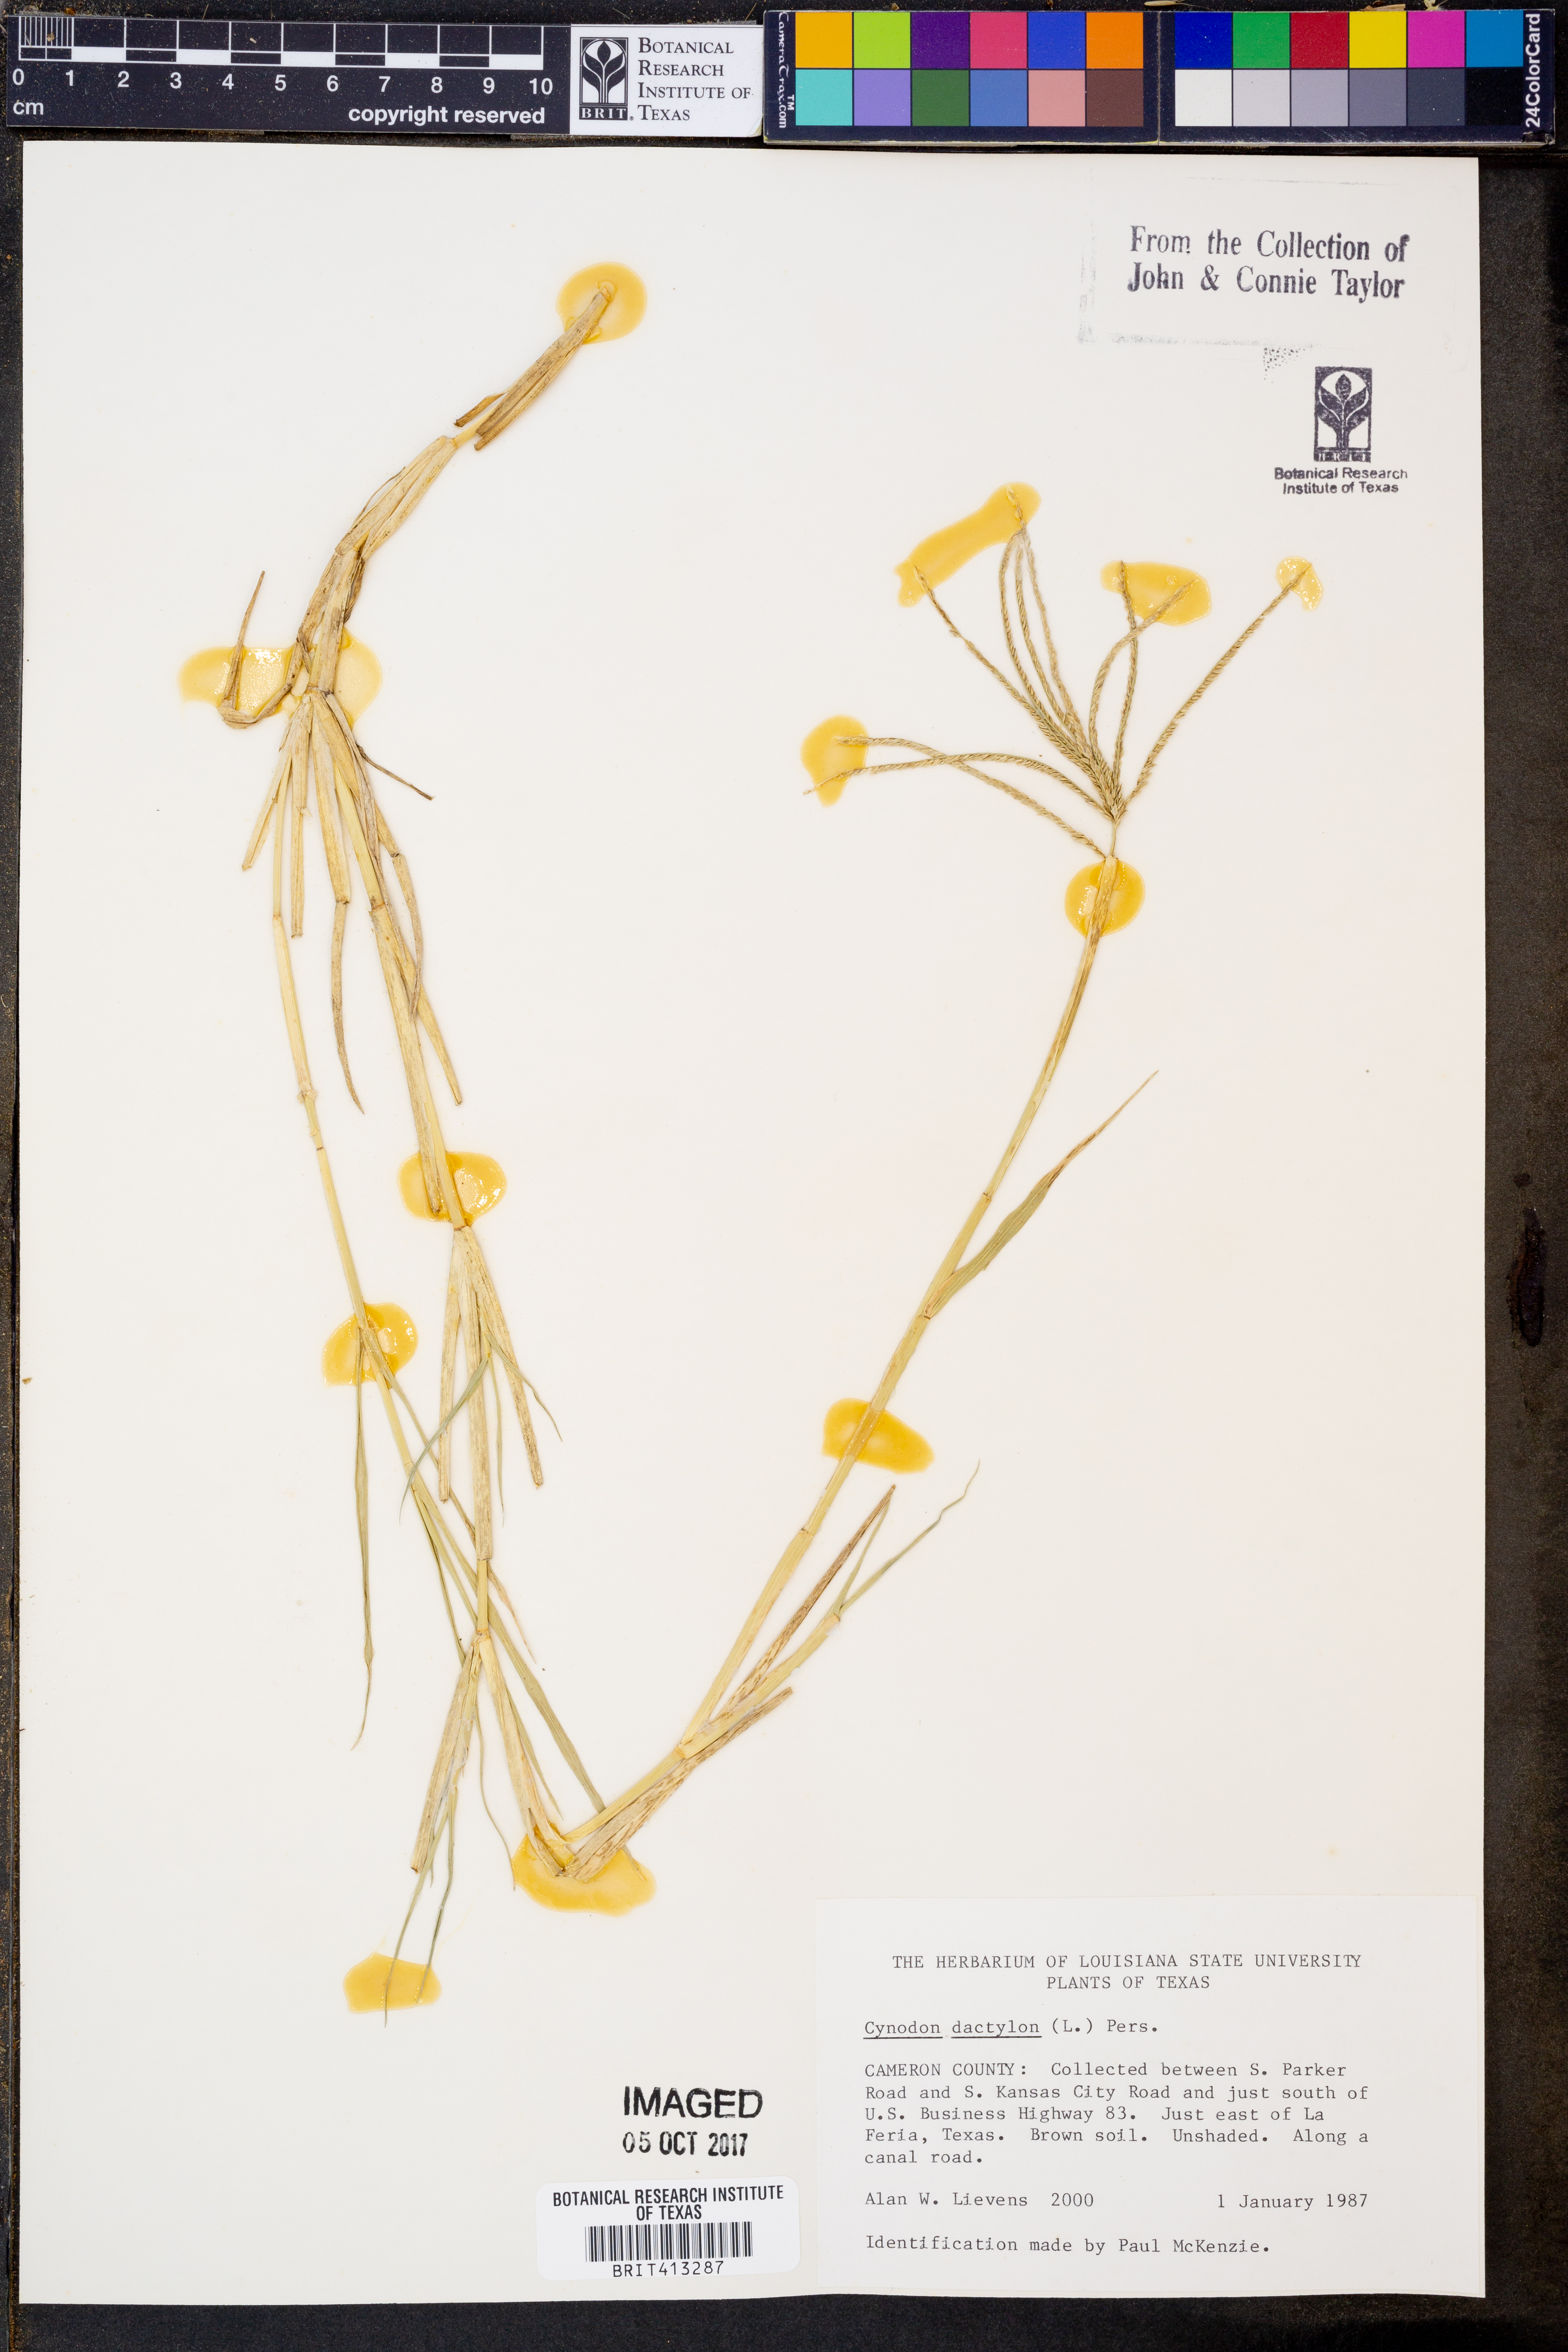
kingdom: Plantae
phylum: Tracheophyta
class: Liliopsida
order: Poales
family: Poaceae
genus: Cynodon
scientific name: Cynodon dactylon
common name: Bermuda grass
